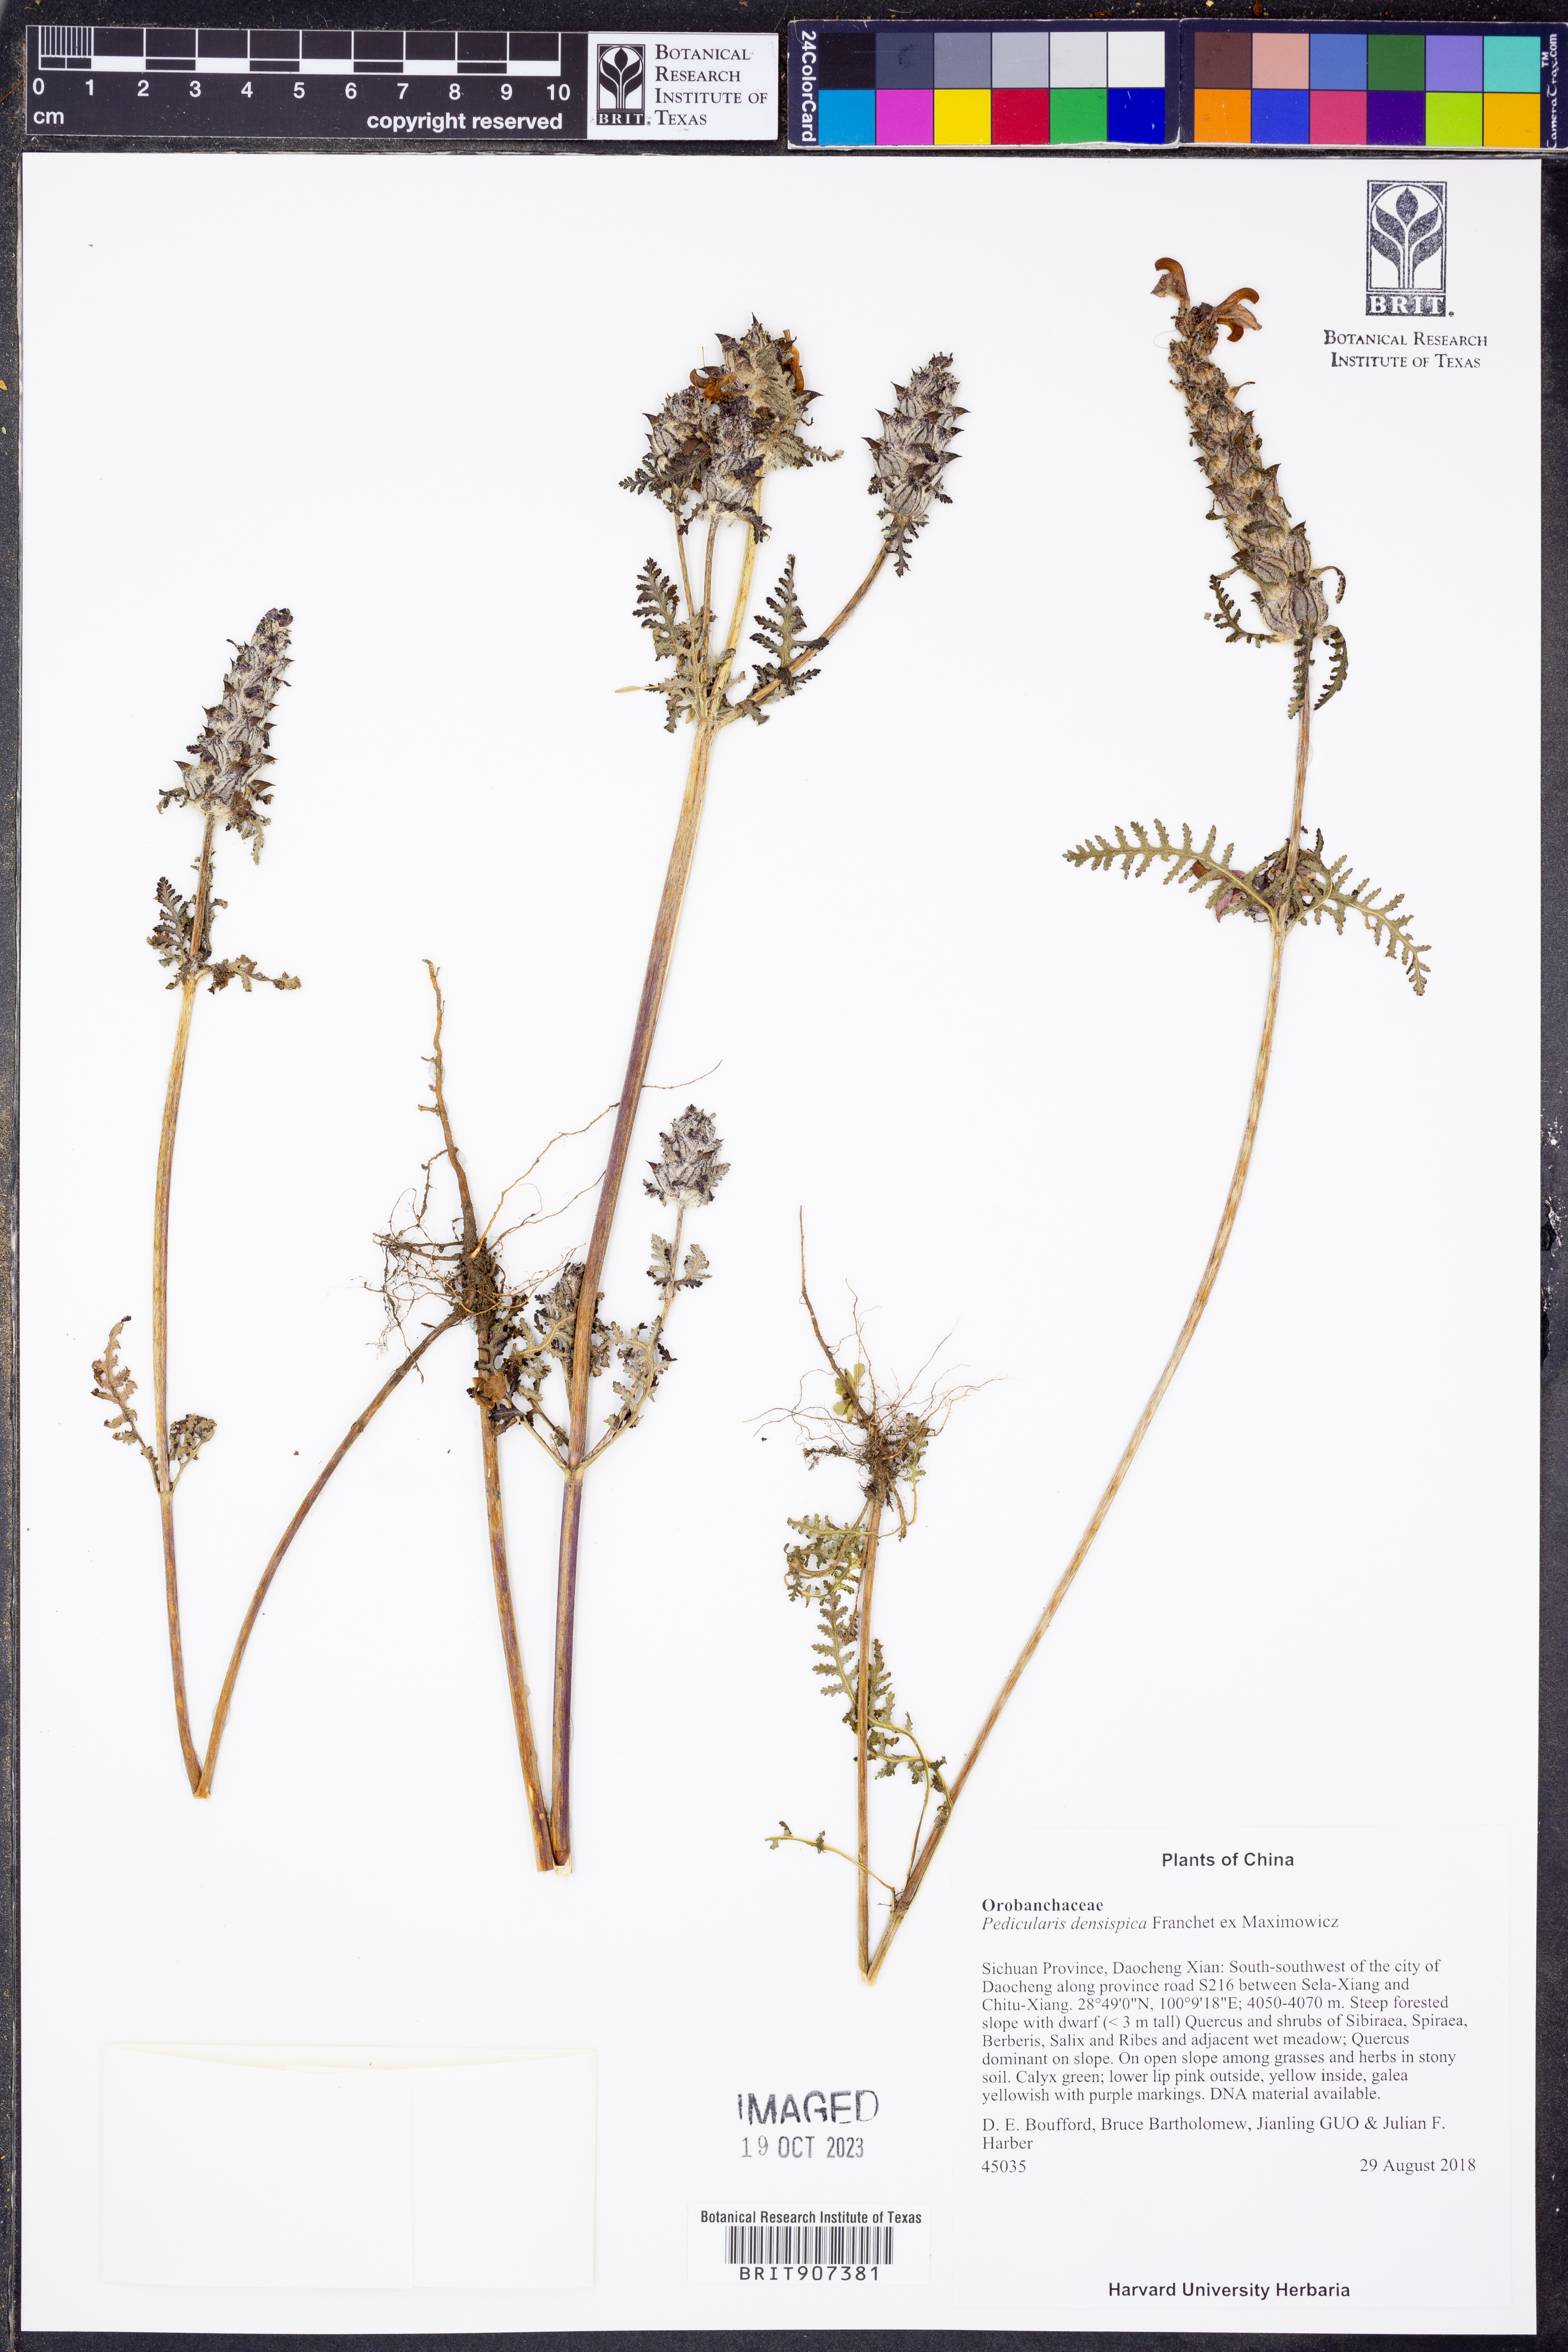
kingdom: Plantae
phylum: Tracheophyta
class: Magnoliopsida
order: Lamiales
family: Orobanchaceae
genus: Pedicularis
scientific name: Pedicularis densispica
